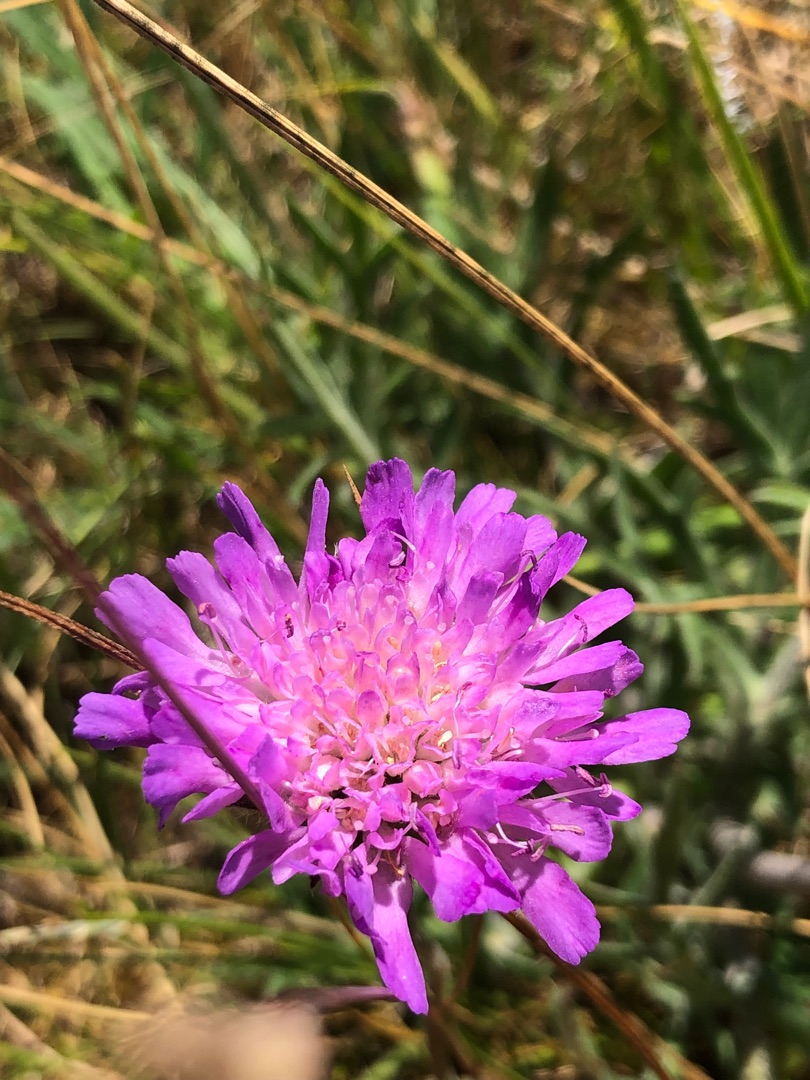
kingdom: Plantae
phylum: Tracheophyta
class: Magnoliopsida
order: Dipsacales
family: Caprifoliaceae
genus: Knautia
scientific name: Knautia arvensis
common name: Blåhat
